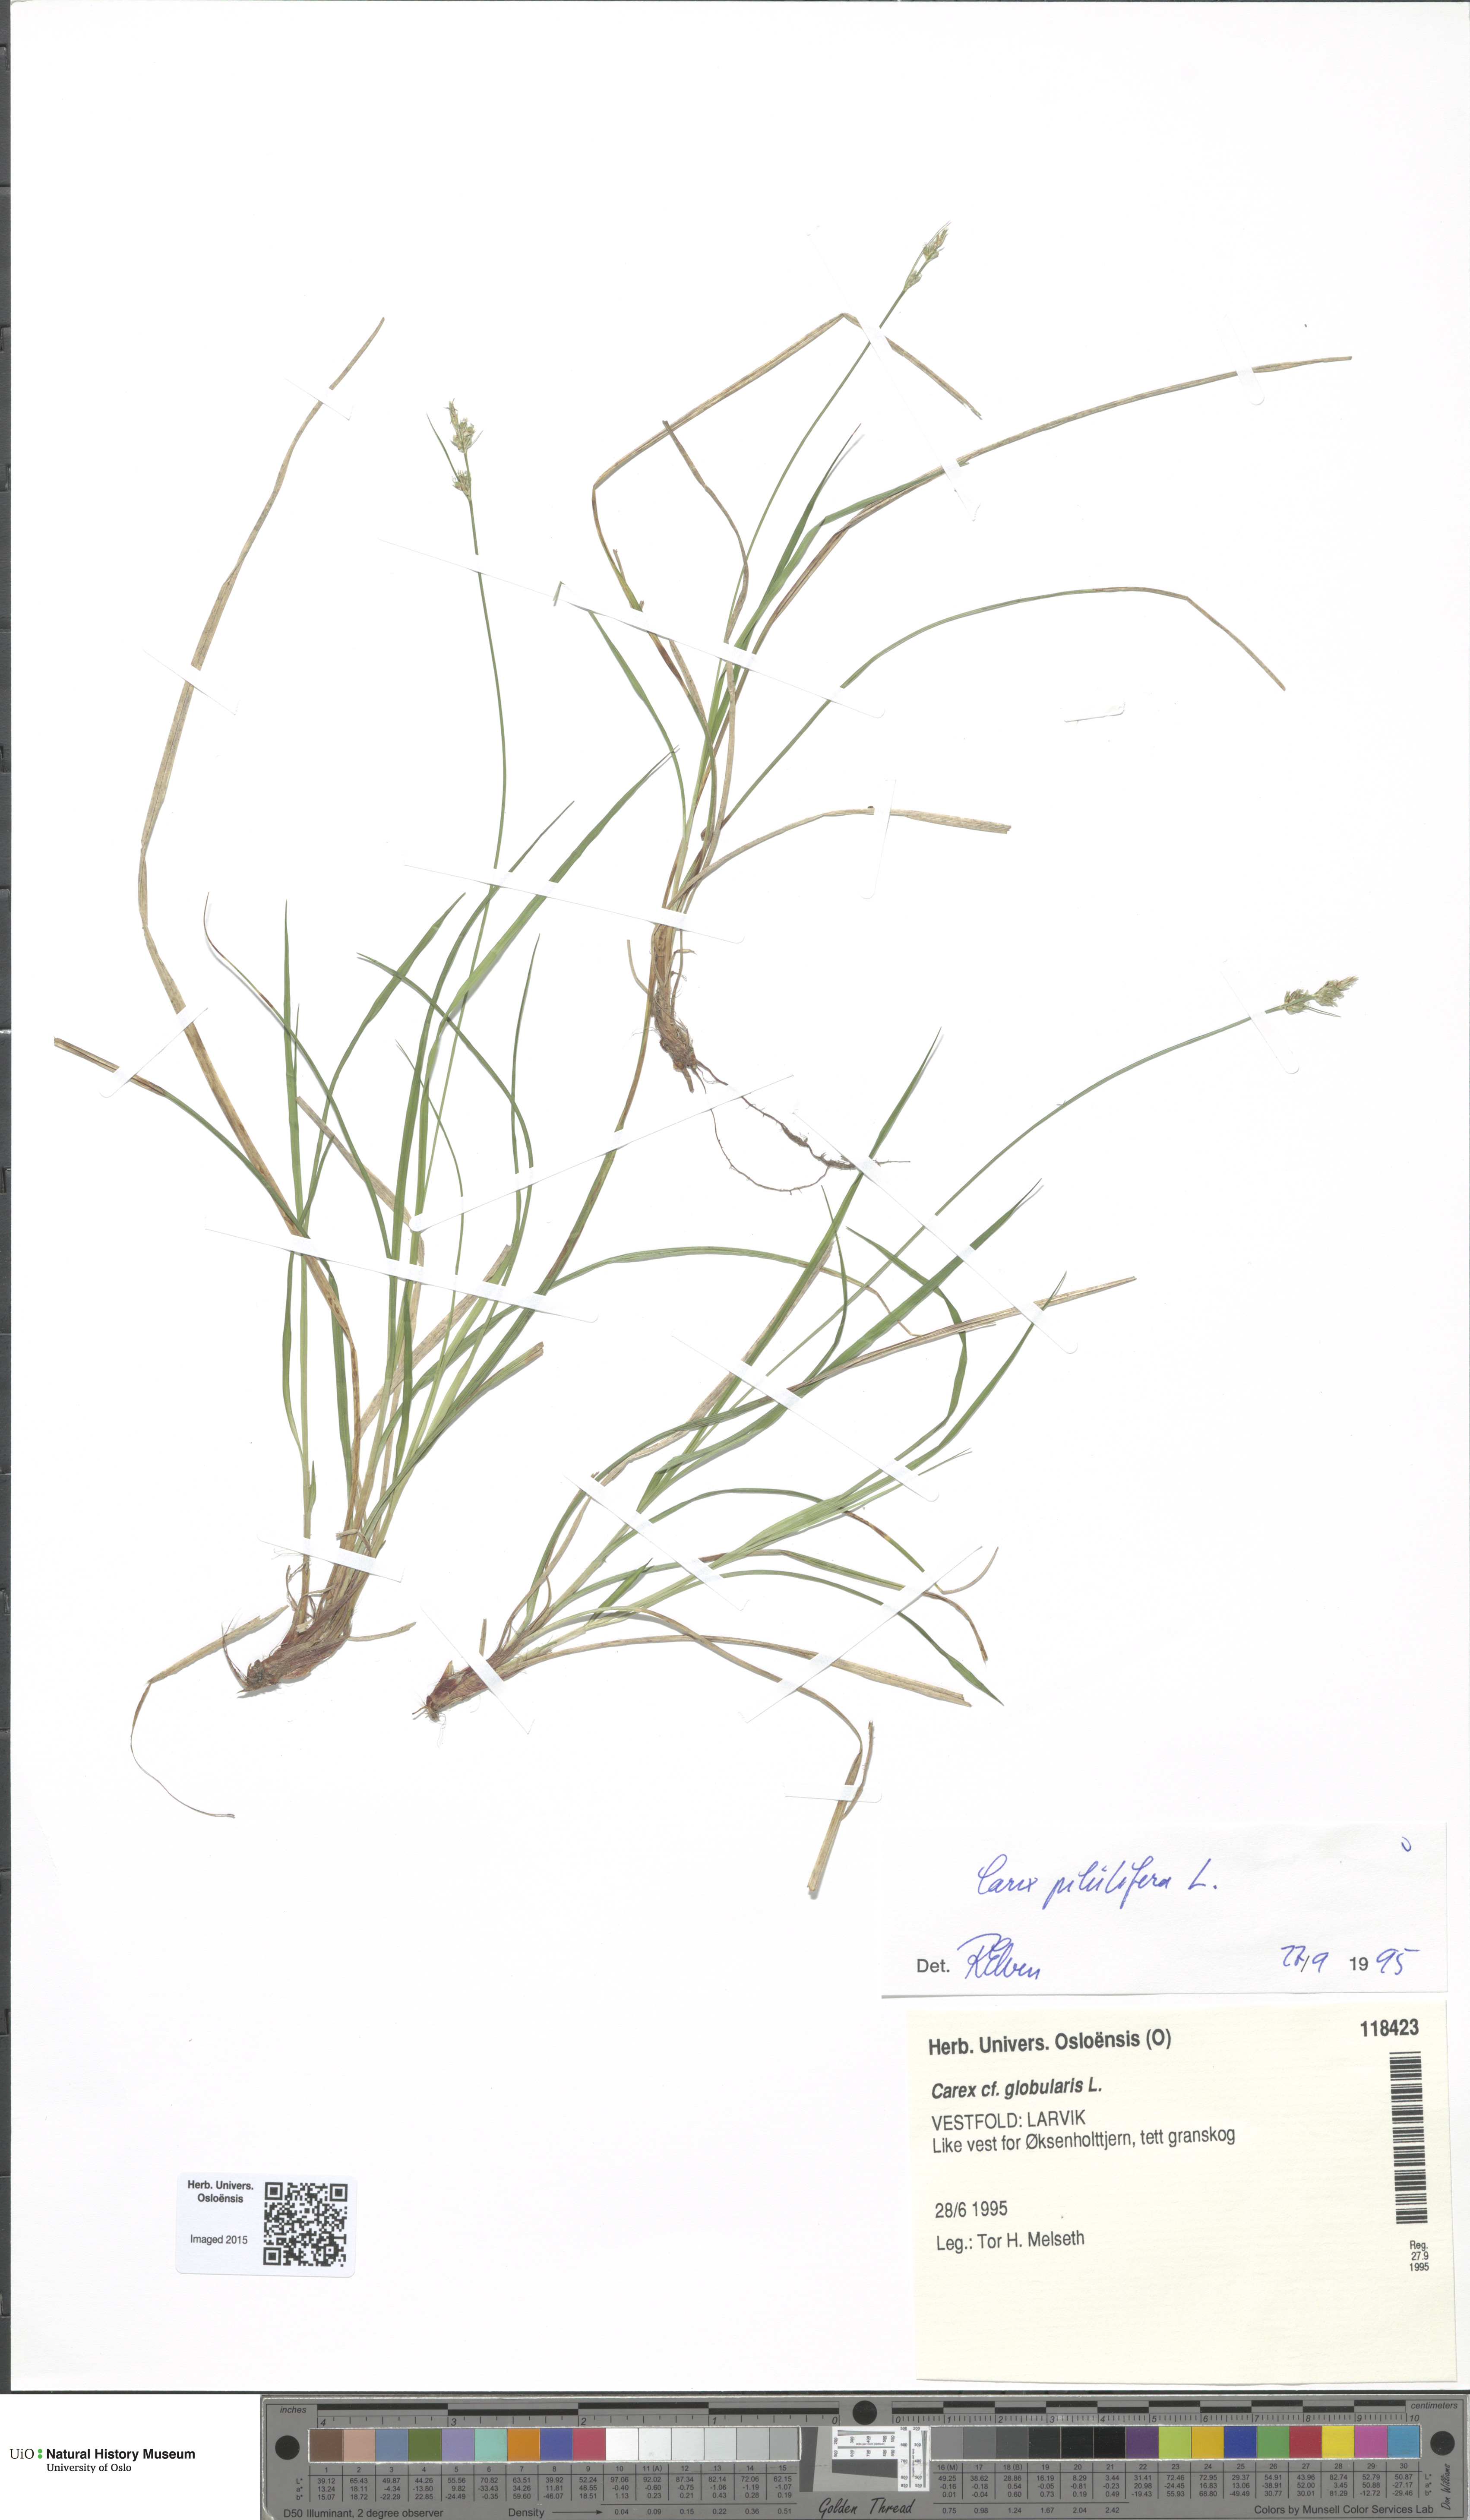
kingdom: Plantae
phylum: Tracheophyta
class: Liliopsida
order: Poales
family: Cyperaceae
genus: Carex
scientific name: Carex pilulifera
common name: Pill sedge
